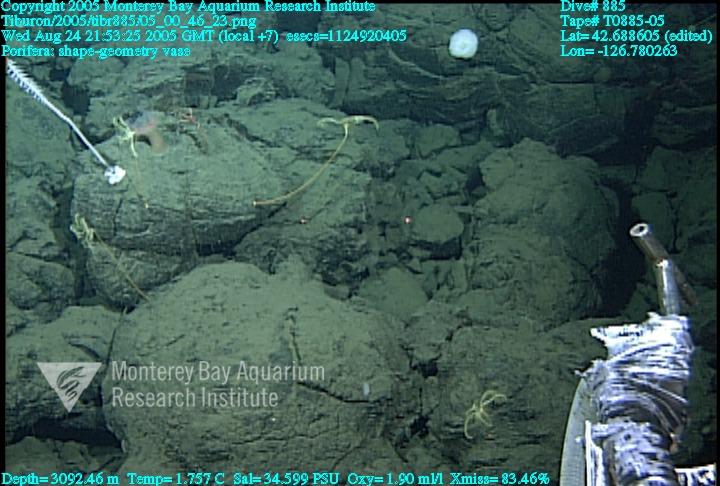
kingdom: Animalia
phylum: Porifera
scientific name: Porifera
